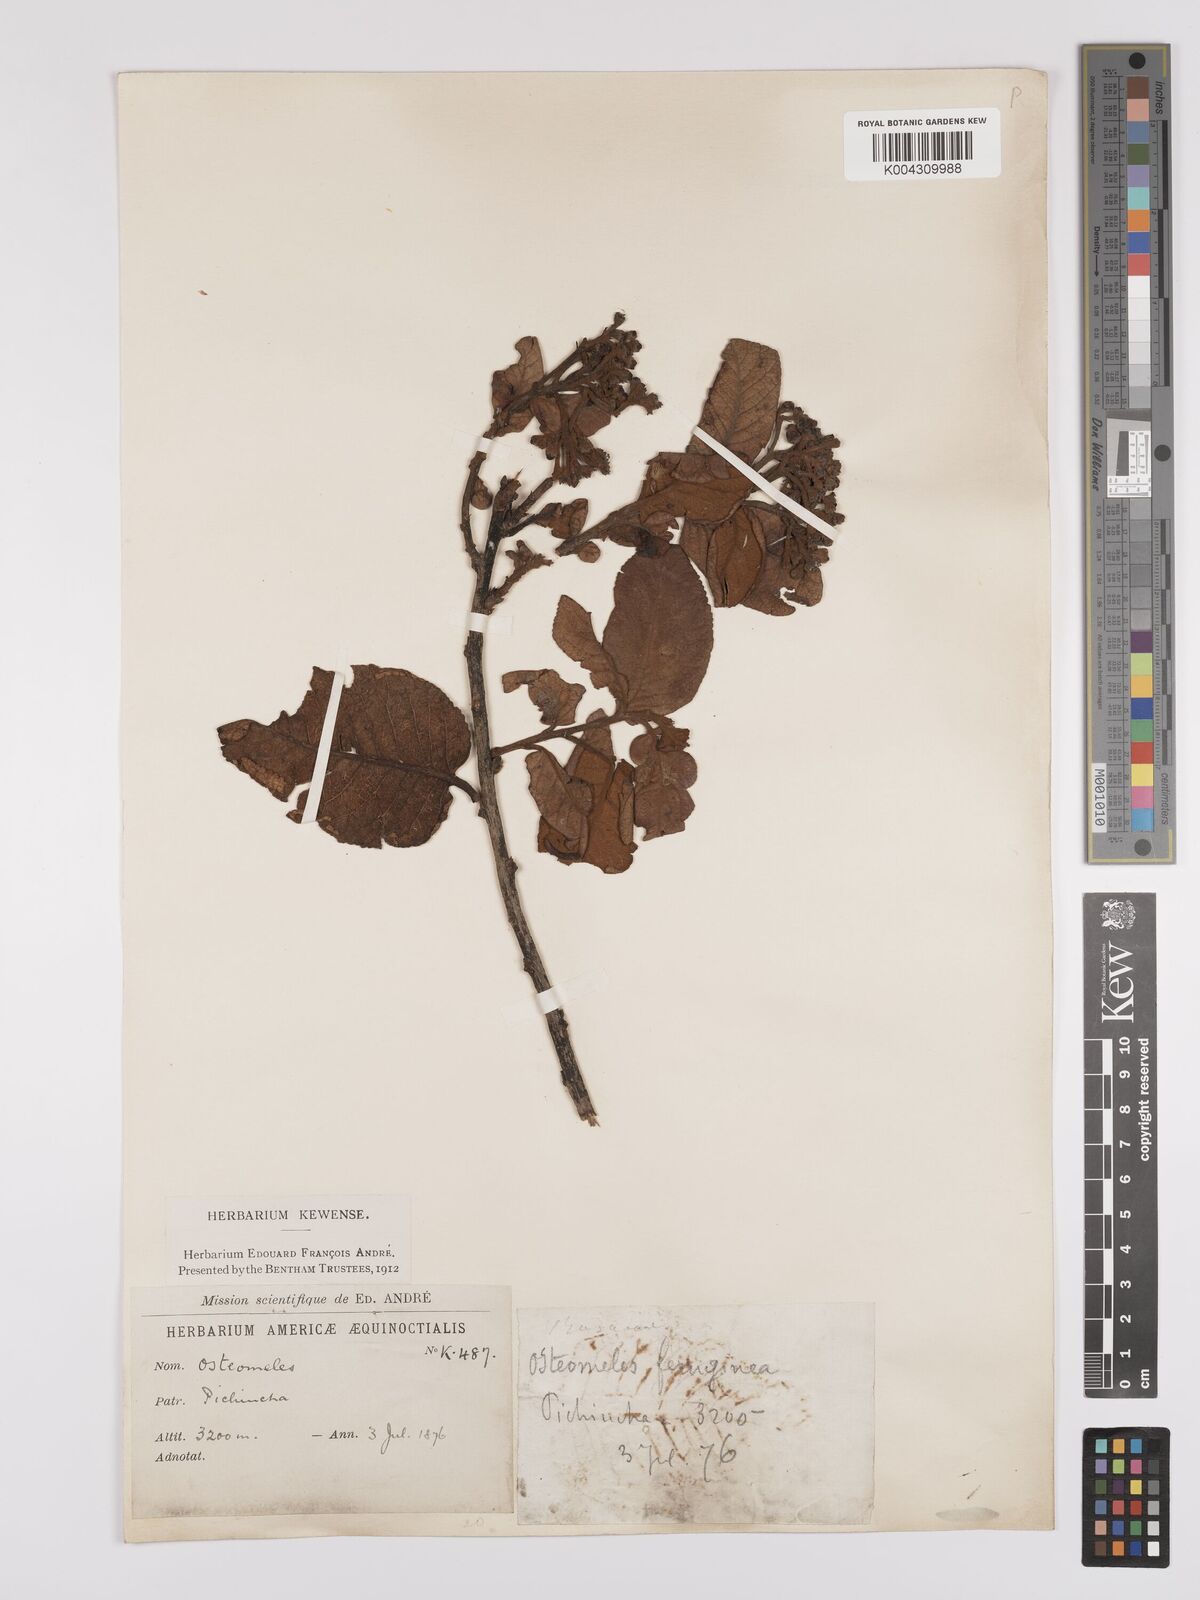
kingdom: Plantae
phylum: Tracheophyta
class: Magnoliopsida
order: Rosales
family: Rosaceae
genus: Hesperomeles
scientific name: Hesperomeles ferruginea
